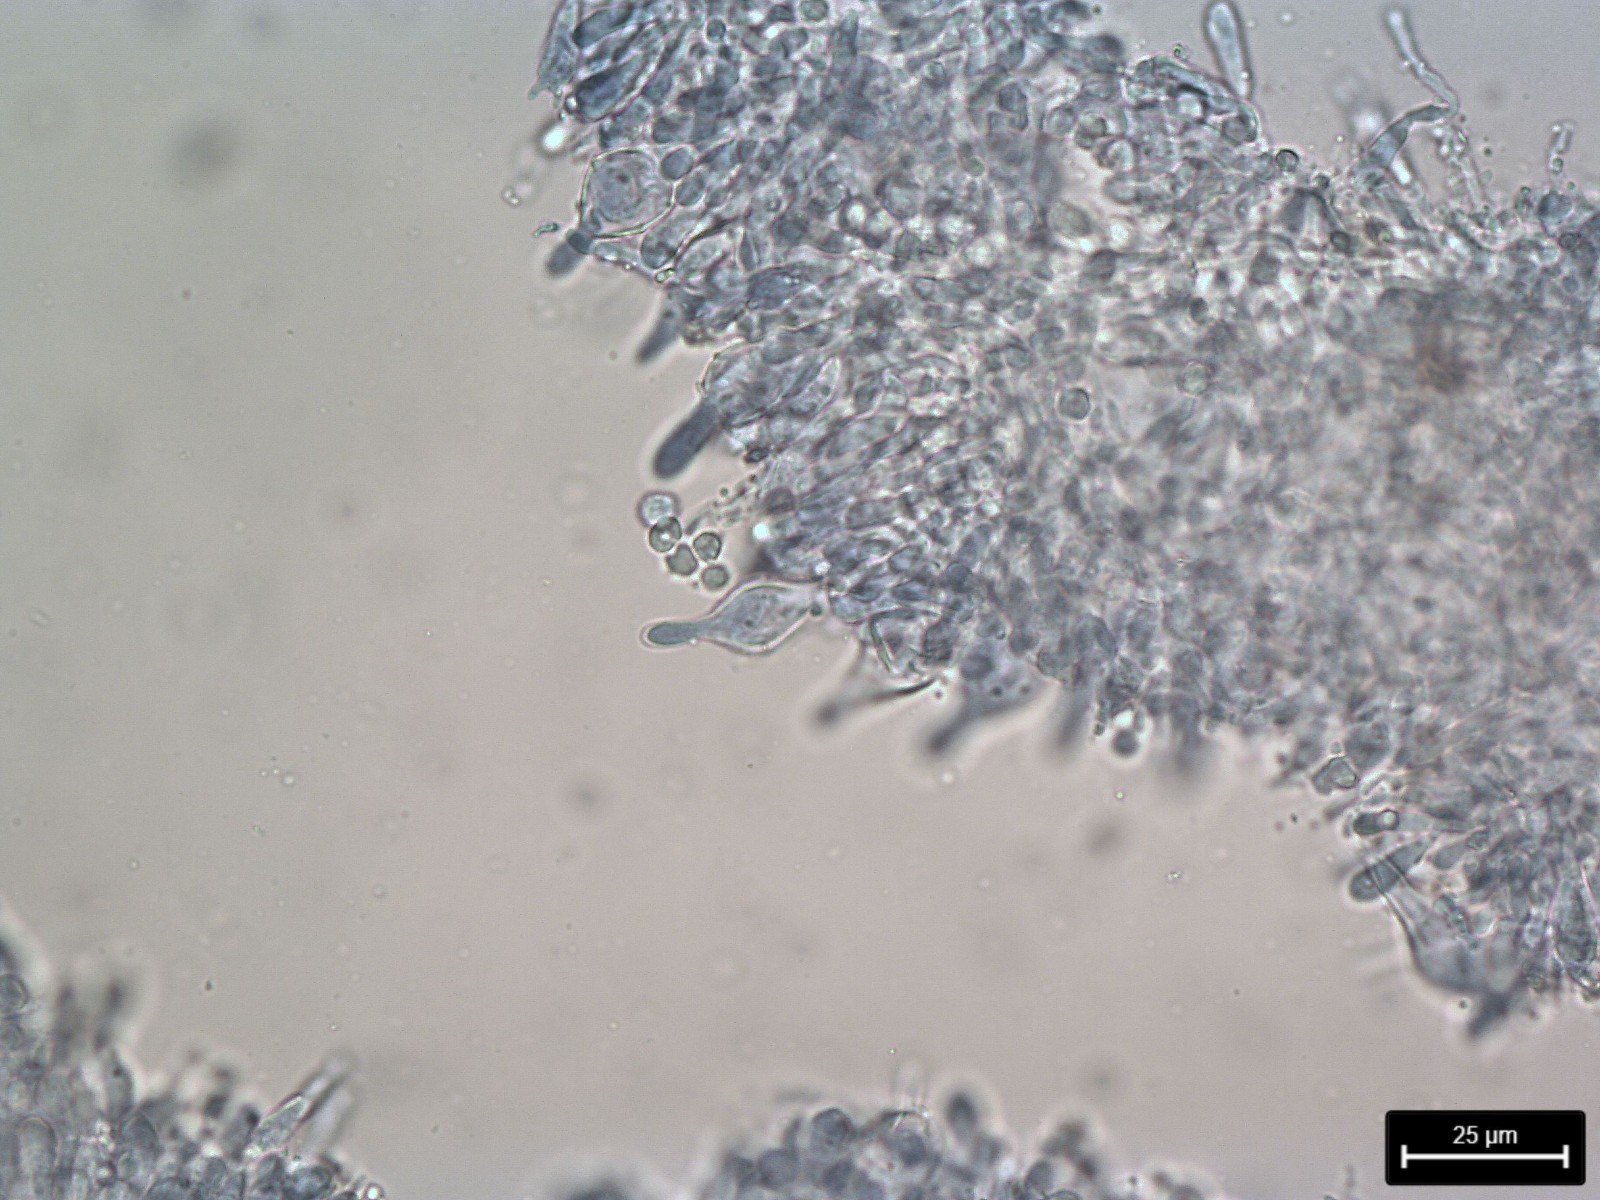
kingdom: Fungi
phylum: Basidiomycota
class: Agaricomycetes
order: Agaricales
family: Tricholomataceae
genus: Mycenella
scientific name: Mycenella salicina
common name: glatsporet dughat
